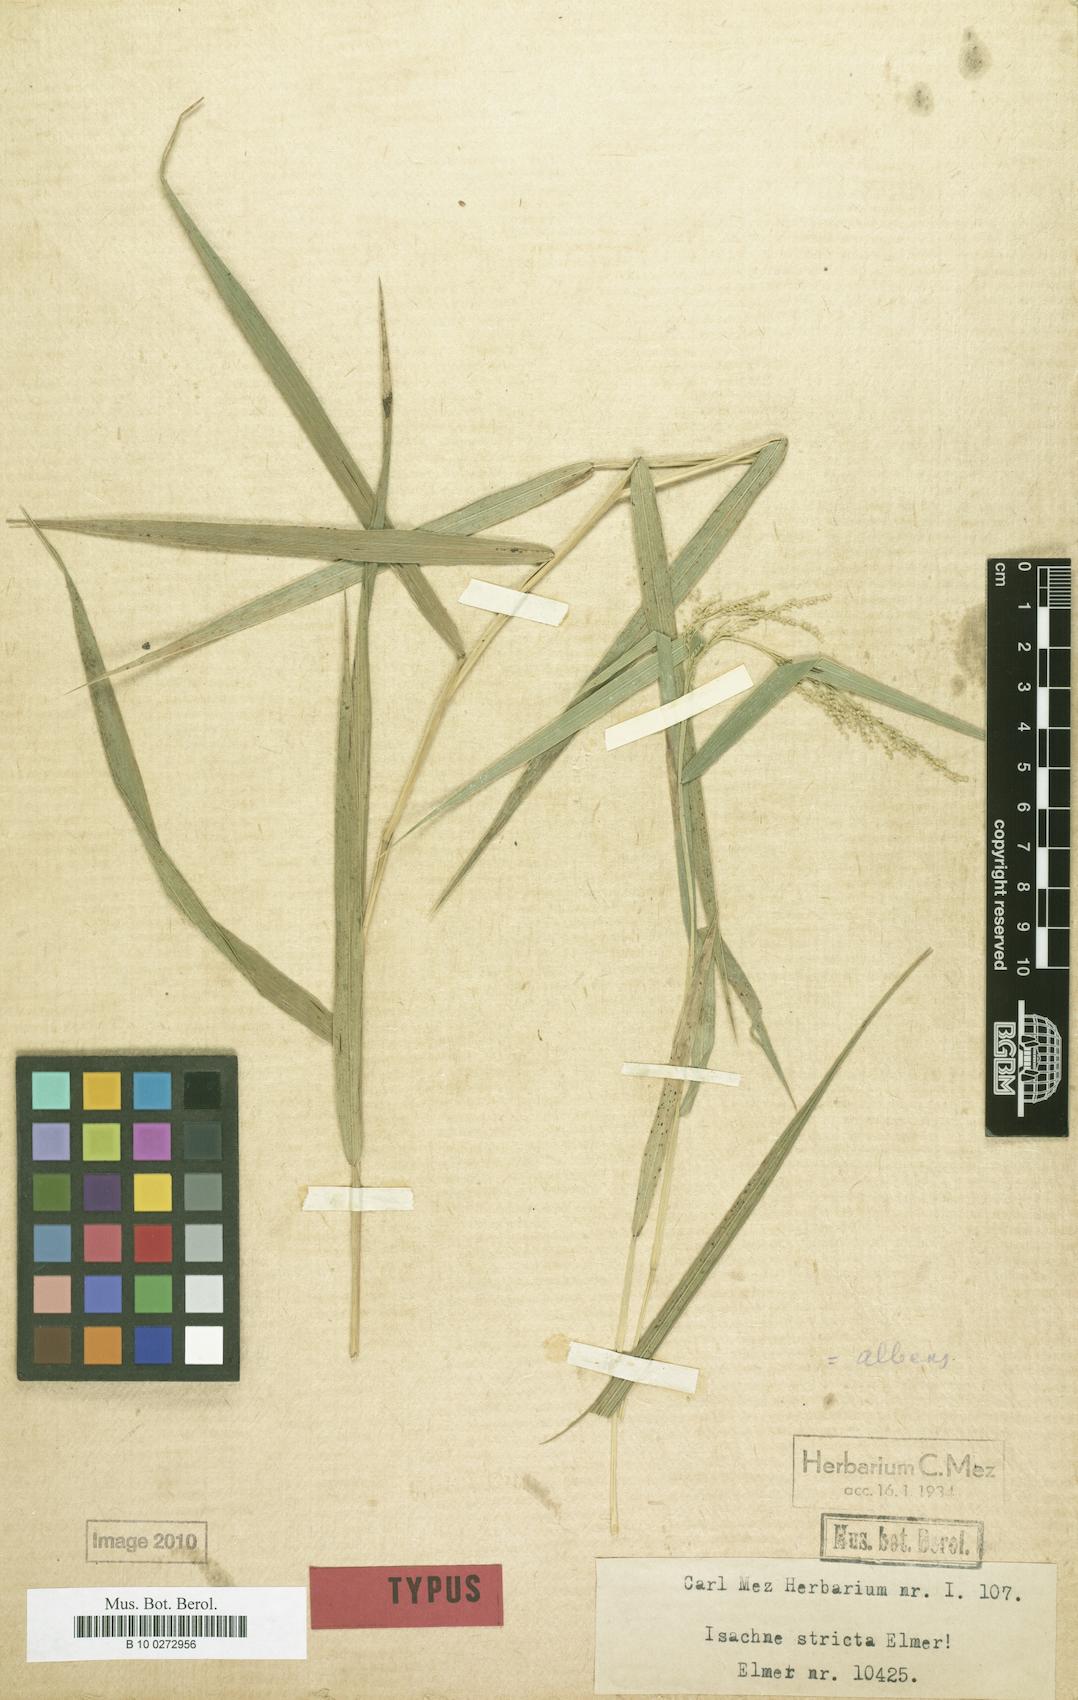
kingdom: Plantae
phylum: Tracheophyta
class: Liliopsida
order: Poales
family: Poaceae
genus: Isachne
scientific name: Isachne stricta
